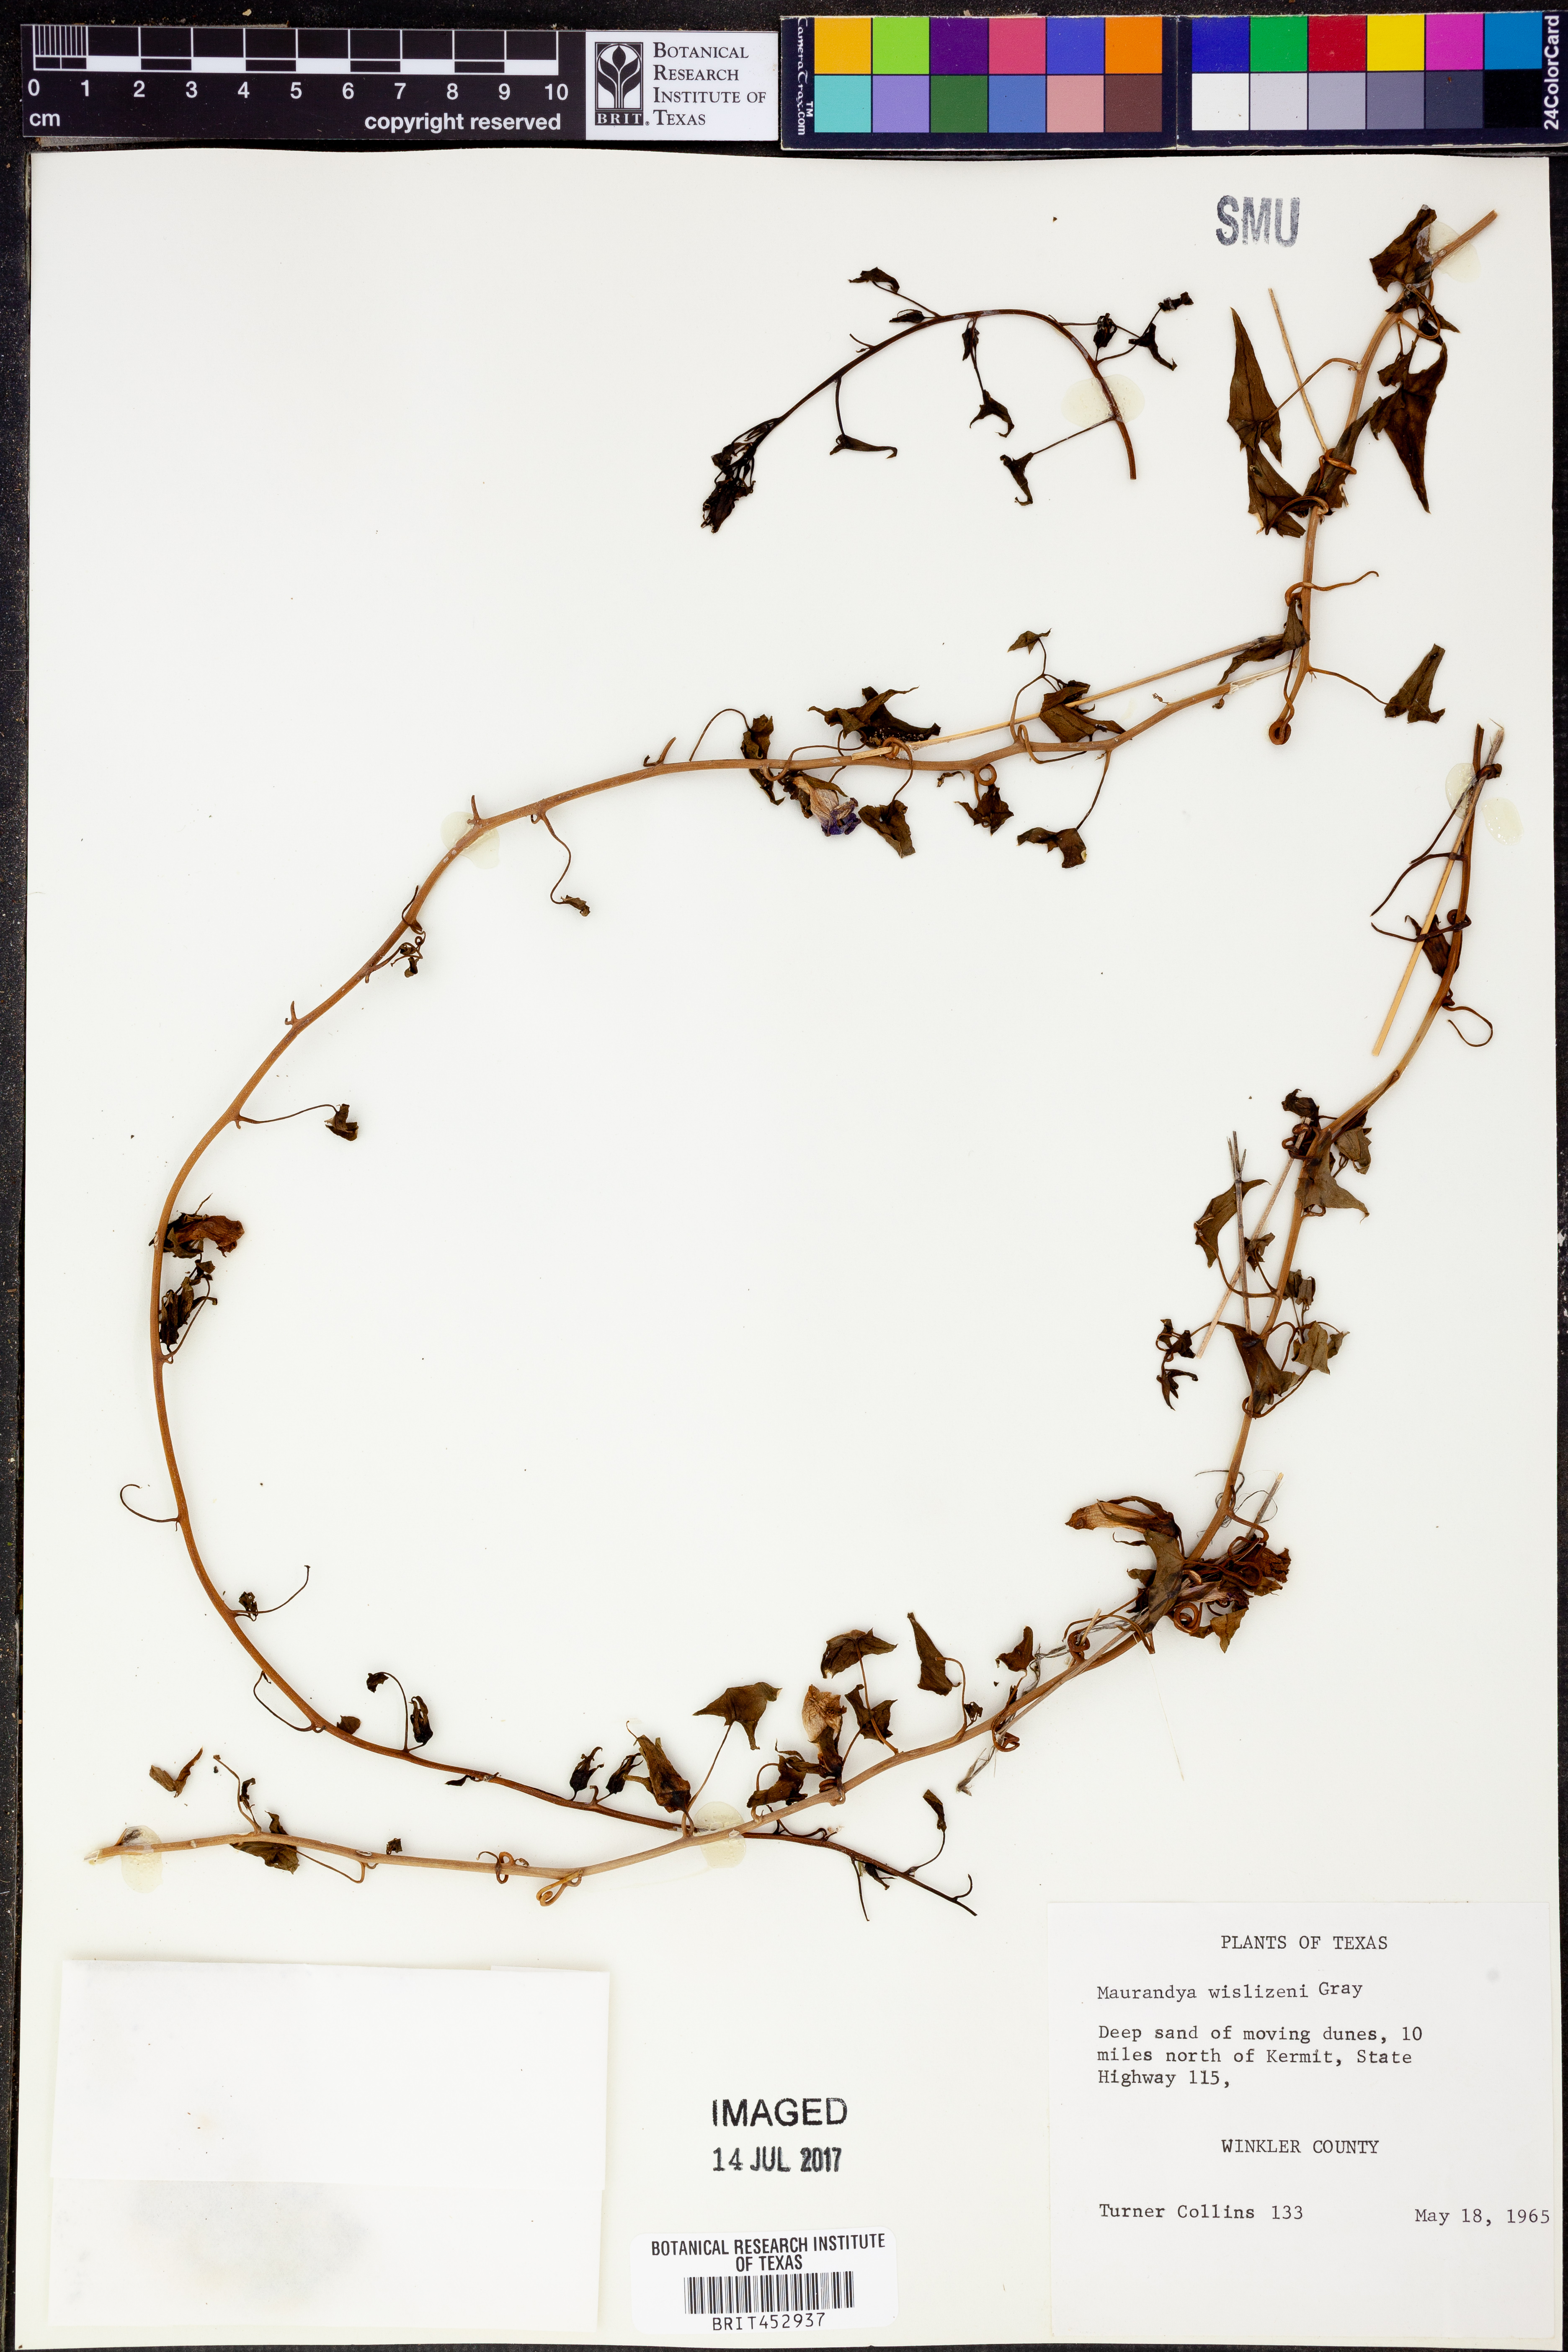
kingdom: Plantae
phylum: Tracheophyta
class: Magnoliopsida
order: Lamiales
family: Plantaginaceae
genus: Epixiphium
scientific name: Epixiphium wislizeni
